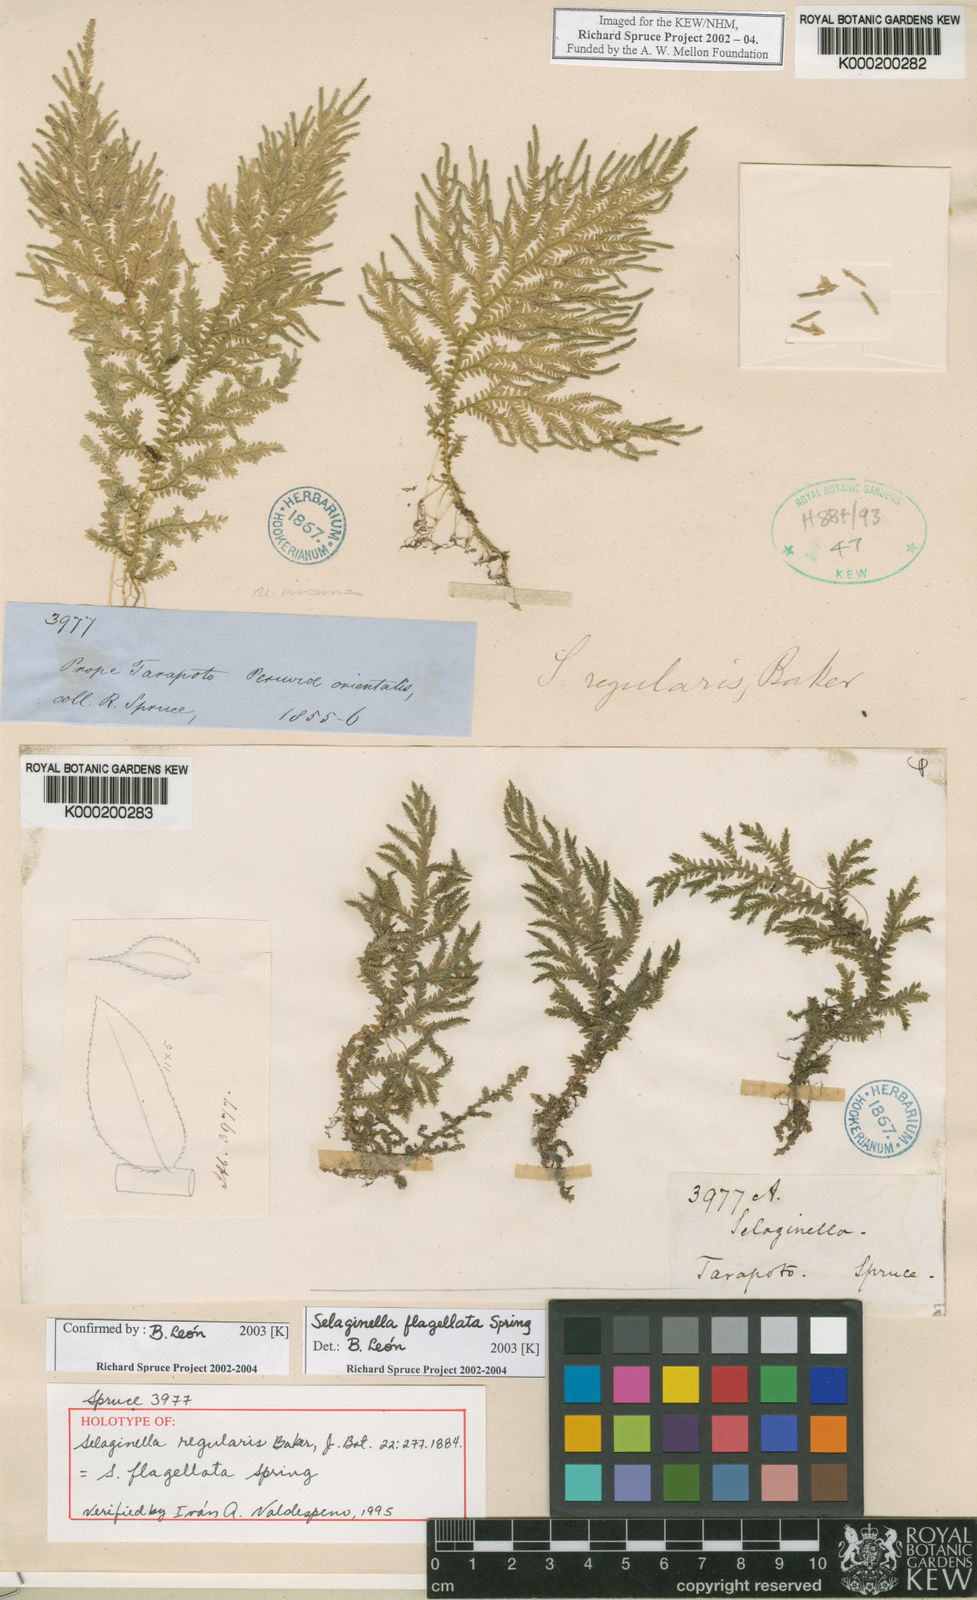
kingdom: Plantae
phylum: Tracheophyta
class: Lycopodiopsida
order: Selaginellales
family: Selaginellaceae
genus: Selaginella
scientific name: Selaginella flagellata
